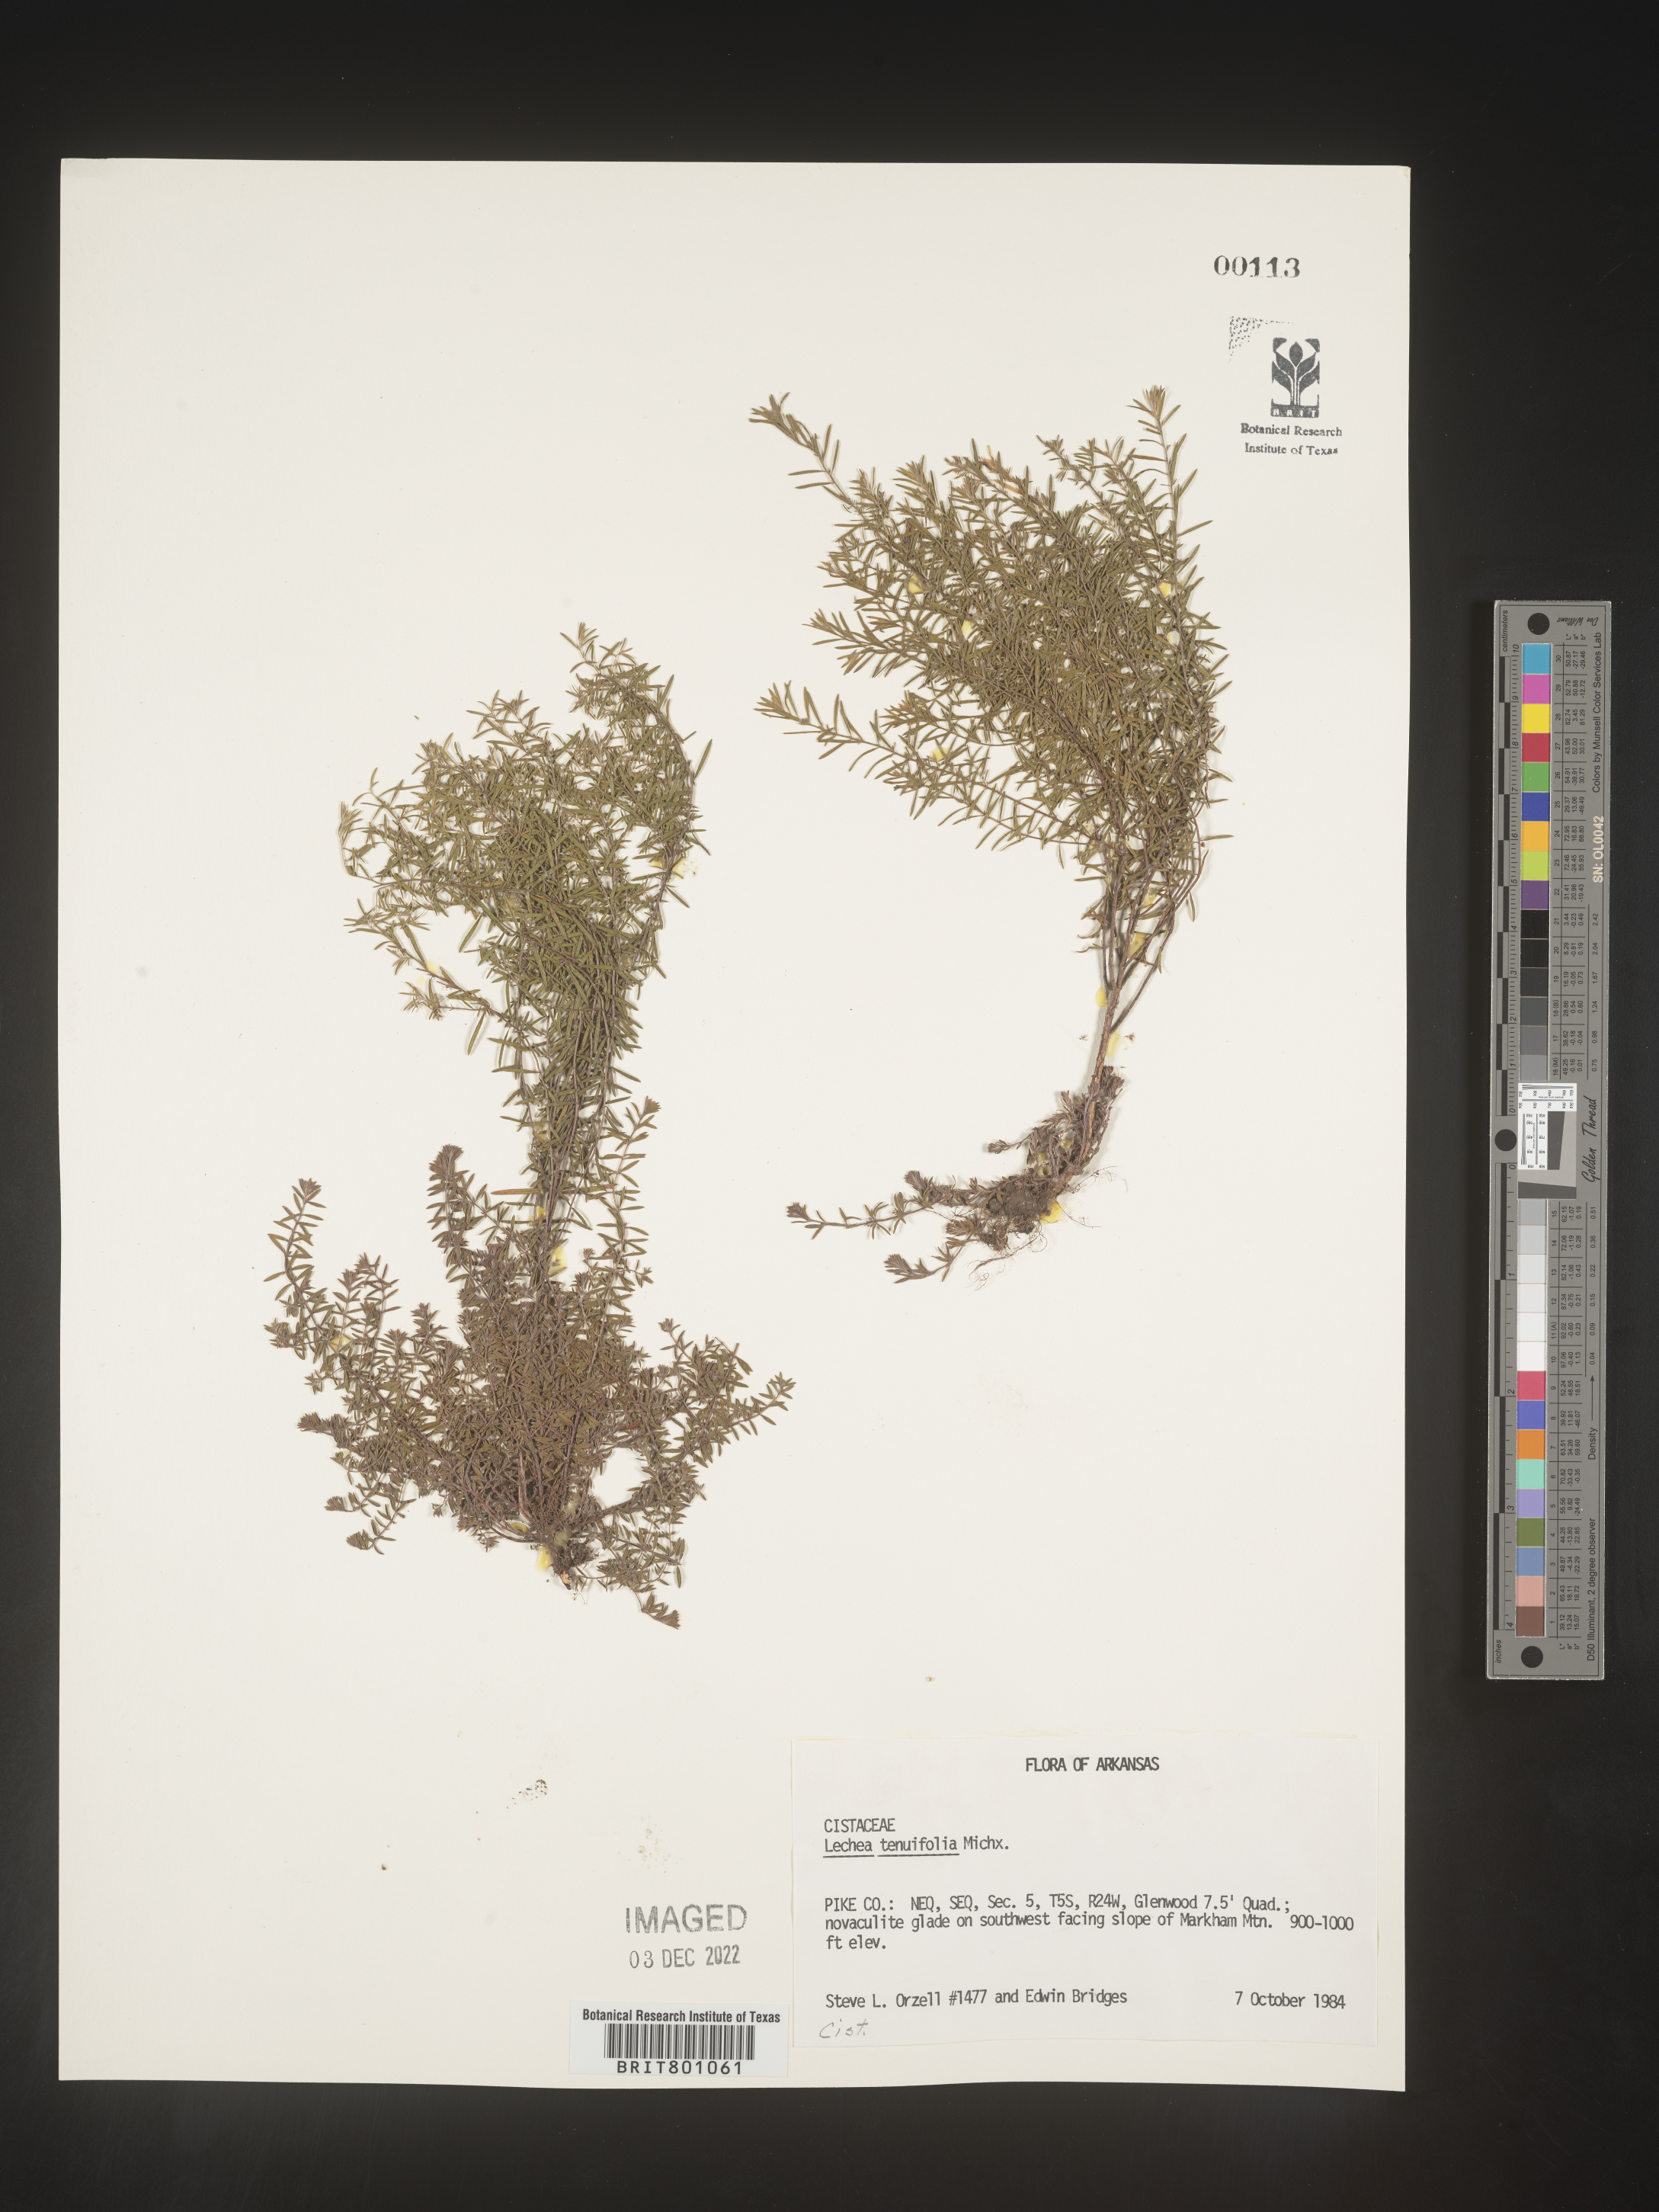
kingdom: Plantae
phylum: Tracheophyta
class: Magnoliopsida
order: Malvales
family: Cistaceae
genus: Lechea
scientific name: Lechea tenuifolia
